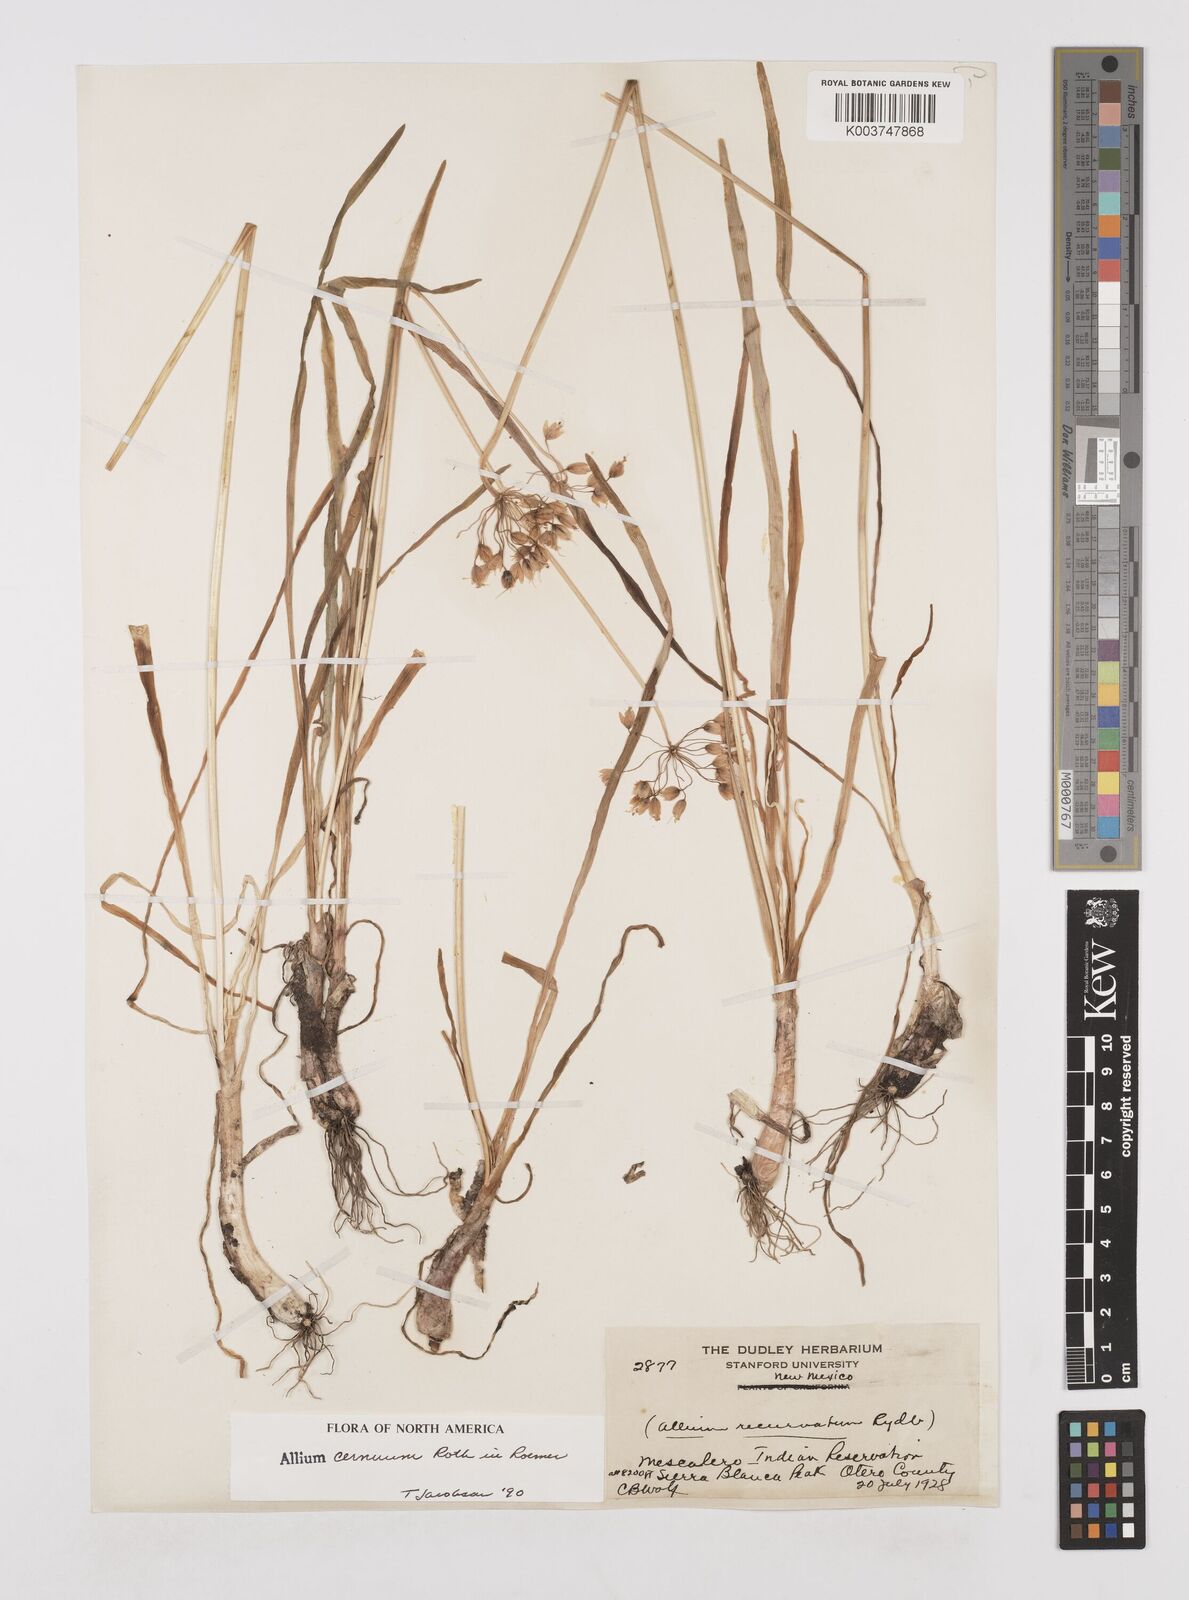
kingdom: Plantae
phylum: Tracheophyta
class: Liliopsida
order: Asparagales
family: Amaryllidaceae
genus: Allium
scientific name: Allium cernuum
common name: Nodding onion
